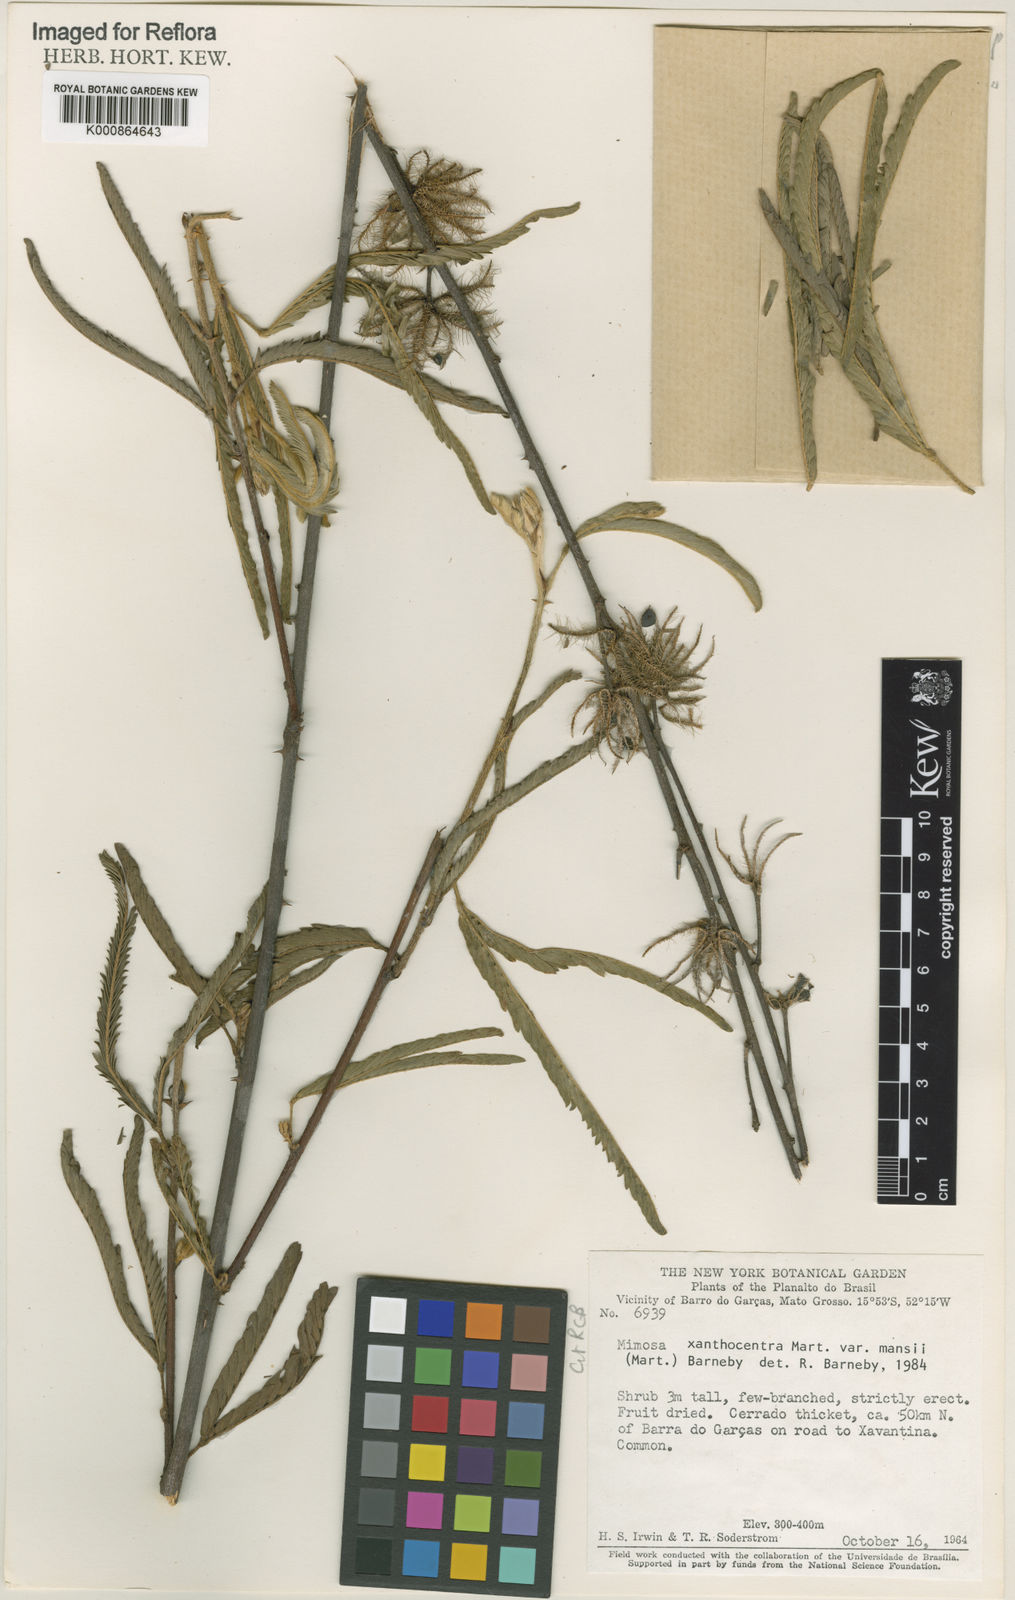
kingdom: Plantae
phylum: Tracheophyta
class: Magnoliopsida
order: Fabales
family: Fabaceae
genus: Mimosa
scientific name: Mimosa xanthocentra
